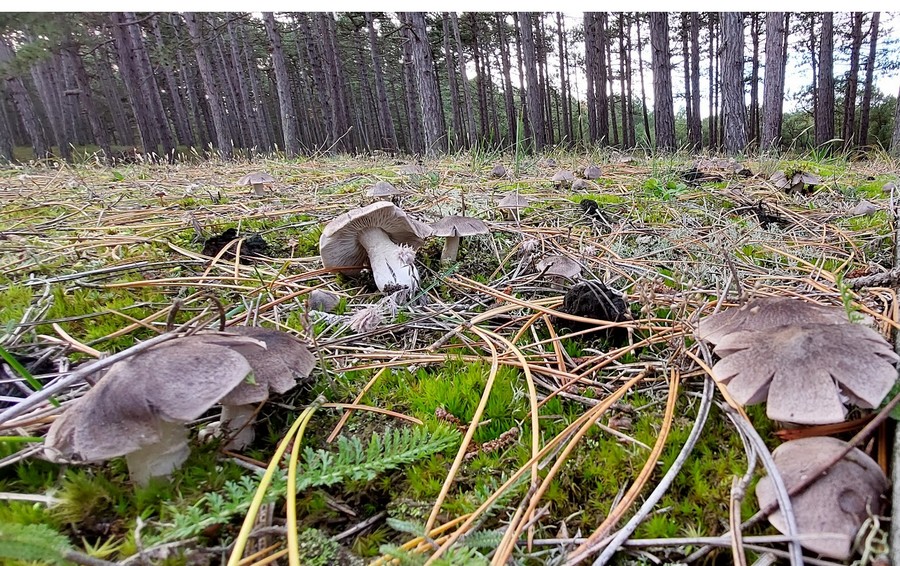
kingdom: Fungi
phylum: Basidiomycota
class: Agaricomycetes
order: Agaricales
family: Tricholomataceae
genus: Tricholoma
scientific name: Tricholoma terreum
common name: jordfarvet ridderhat
